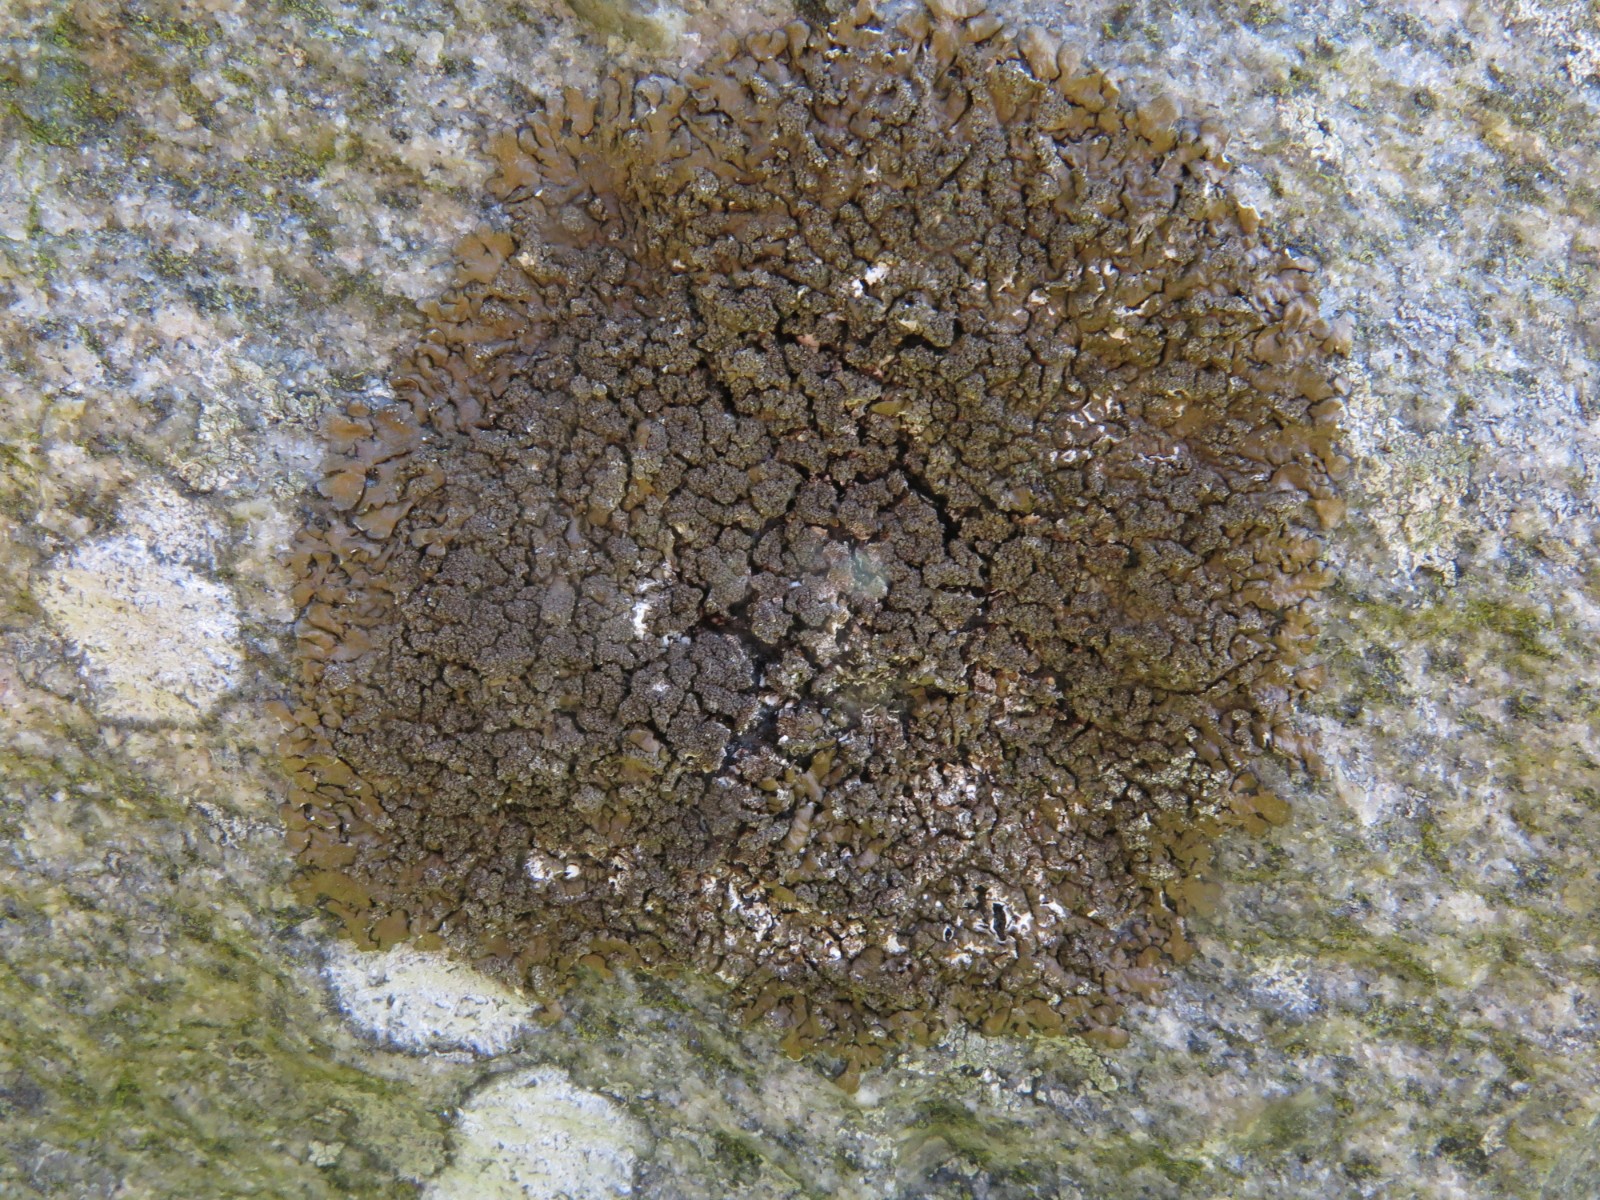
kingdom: Fungi
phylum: Ascomycota
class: Lecanoromycetes
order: Lecanorales
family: Parmeliaceae
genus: Xanthoparmelia
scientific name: Xanthoparmelia verruculifera
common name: småknoppet skållav
